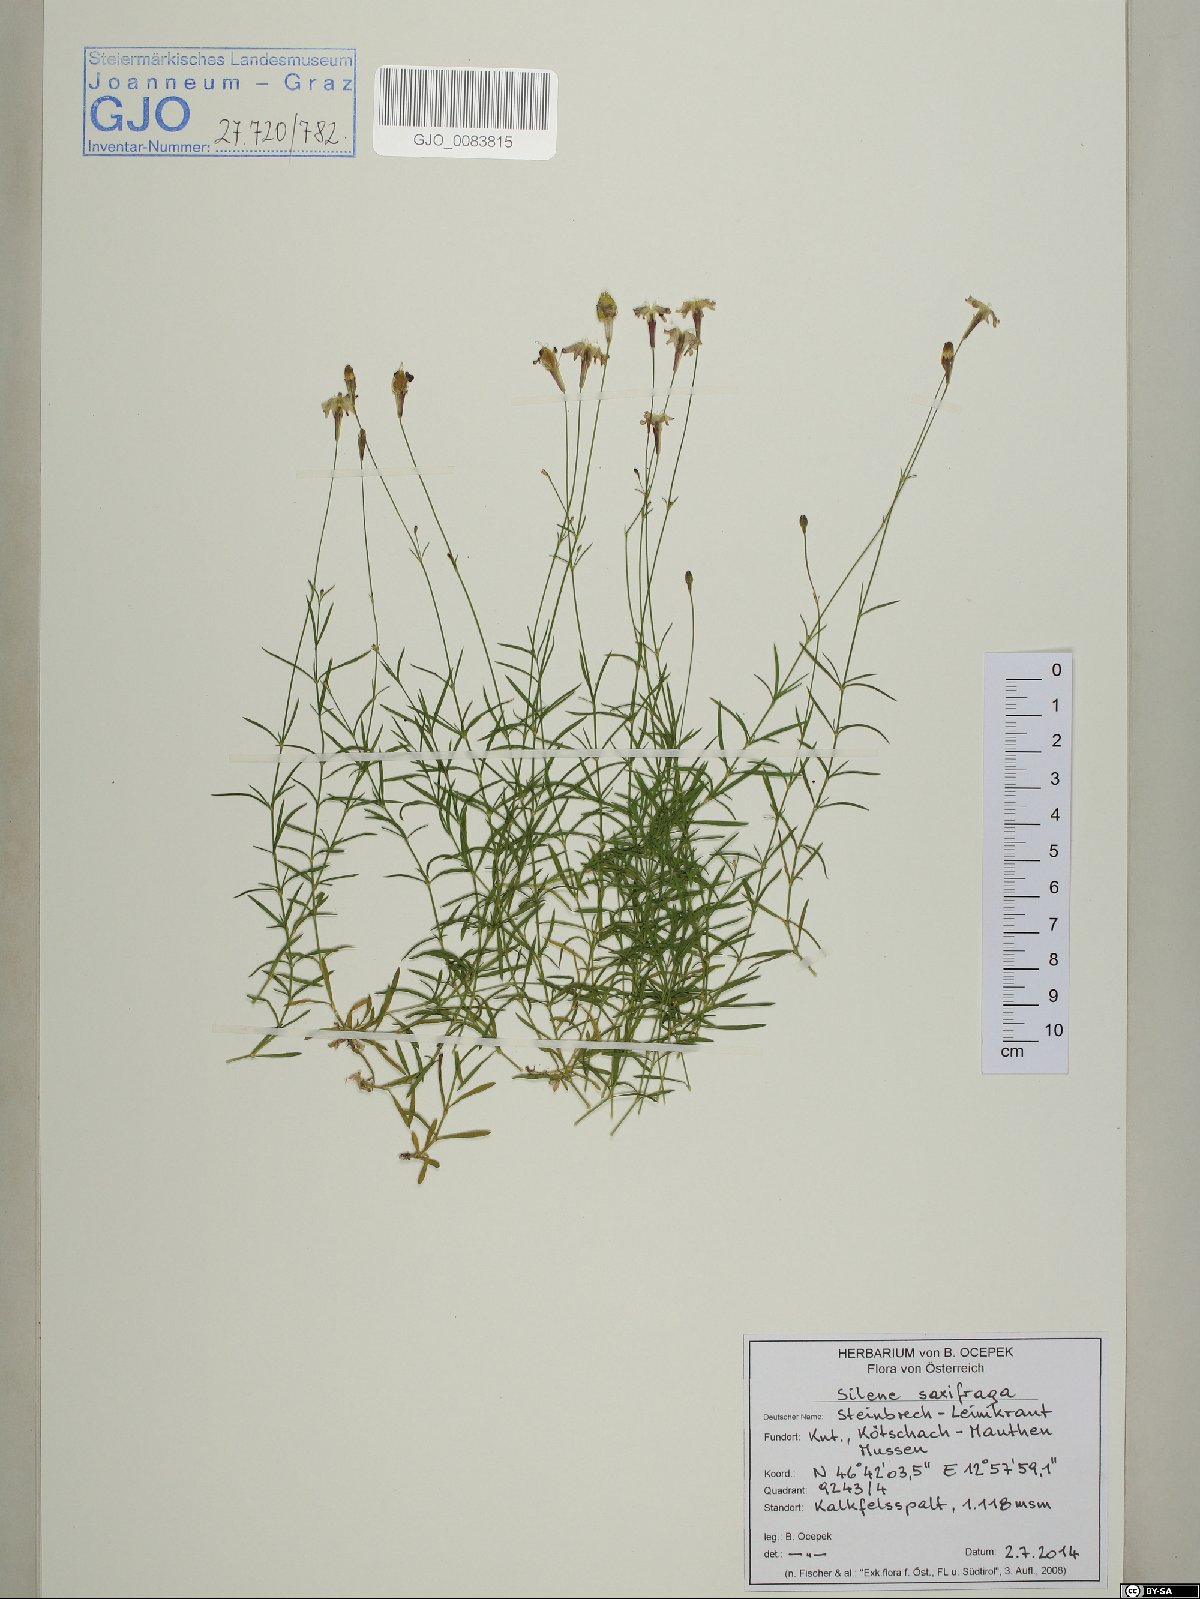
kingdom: Plantae
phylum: Tracheophyta
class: Magnoliopsida
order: Caryophyllales
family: Caryophyllaceae
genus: Silene
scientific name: Silene saxifraga
